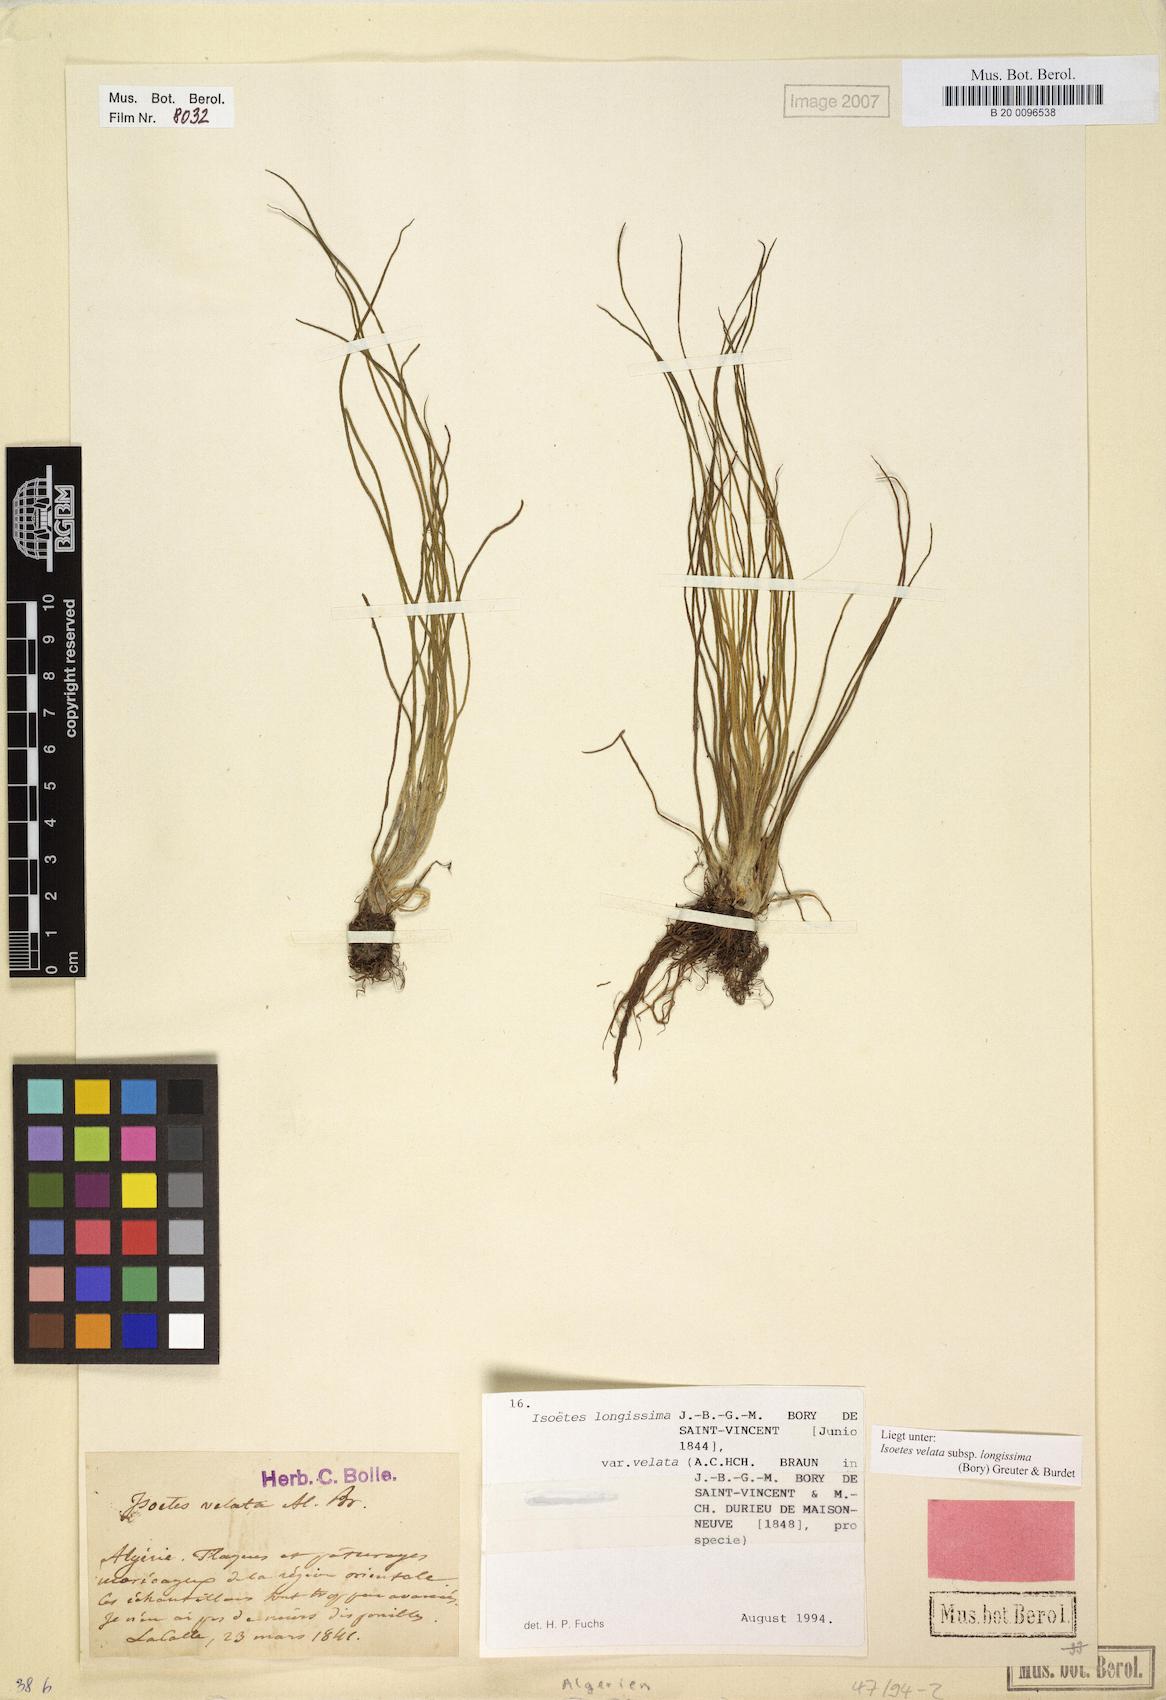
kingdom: Plantae
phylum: Tracheophyta
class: Lycopodiopsida
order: Isoetales
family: Isoetaceae
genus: Isoetes
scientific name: Isoetes longissima
